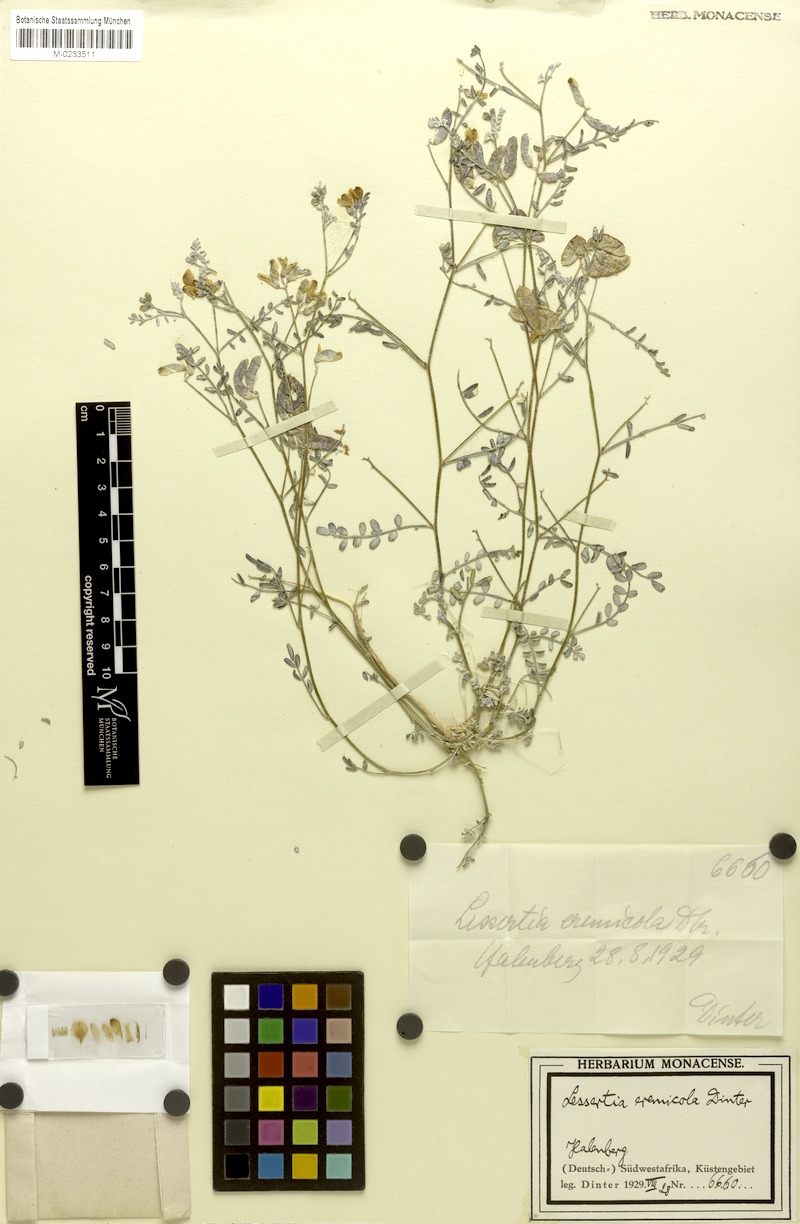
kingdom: Plantae
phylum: Tracheophyta
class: Magnoliopsida
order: Fabales
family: Fabaceae
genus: Lessertia
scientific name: Lessertia eremicola
